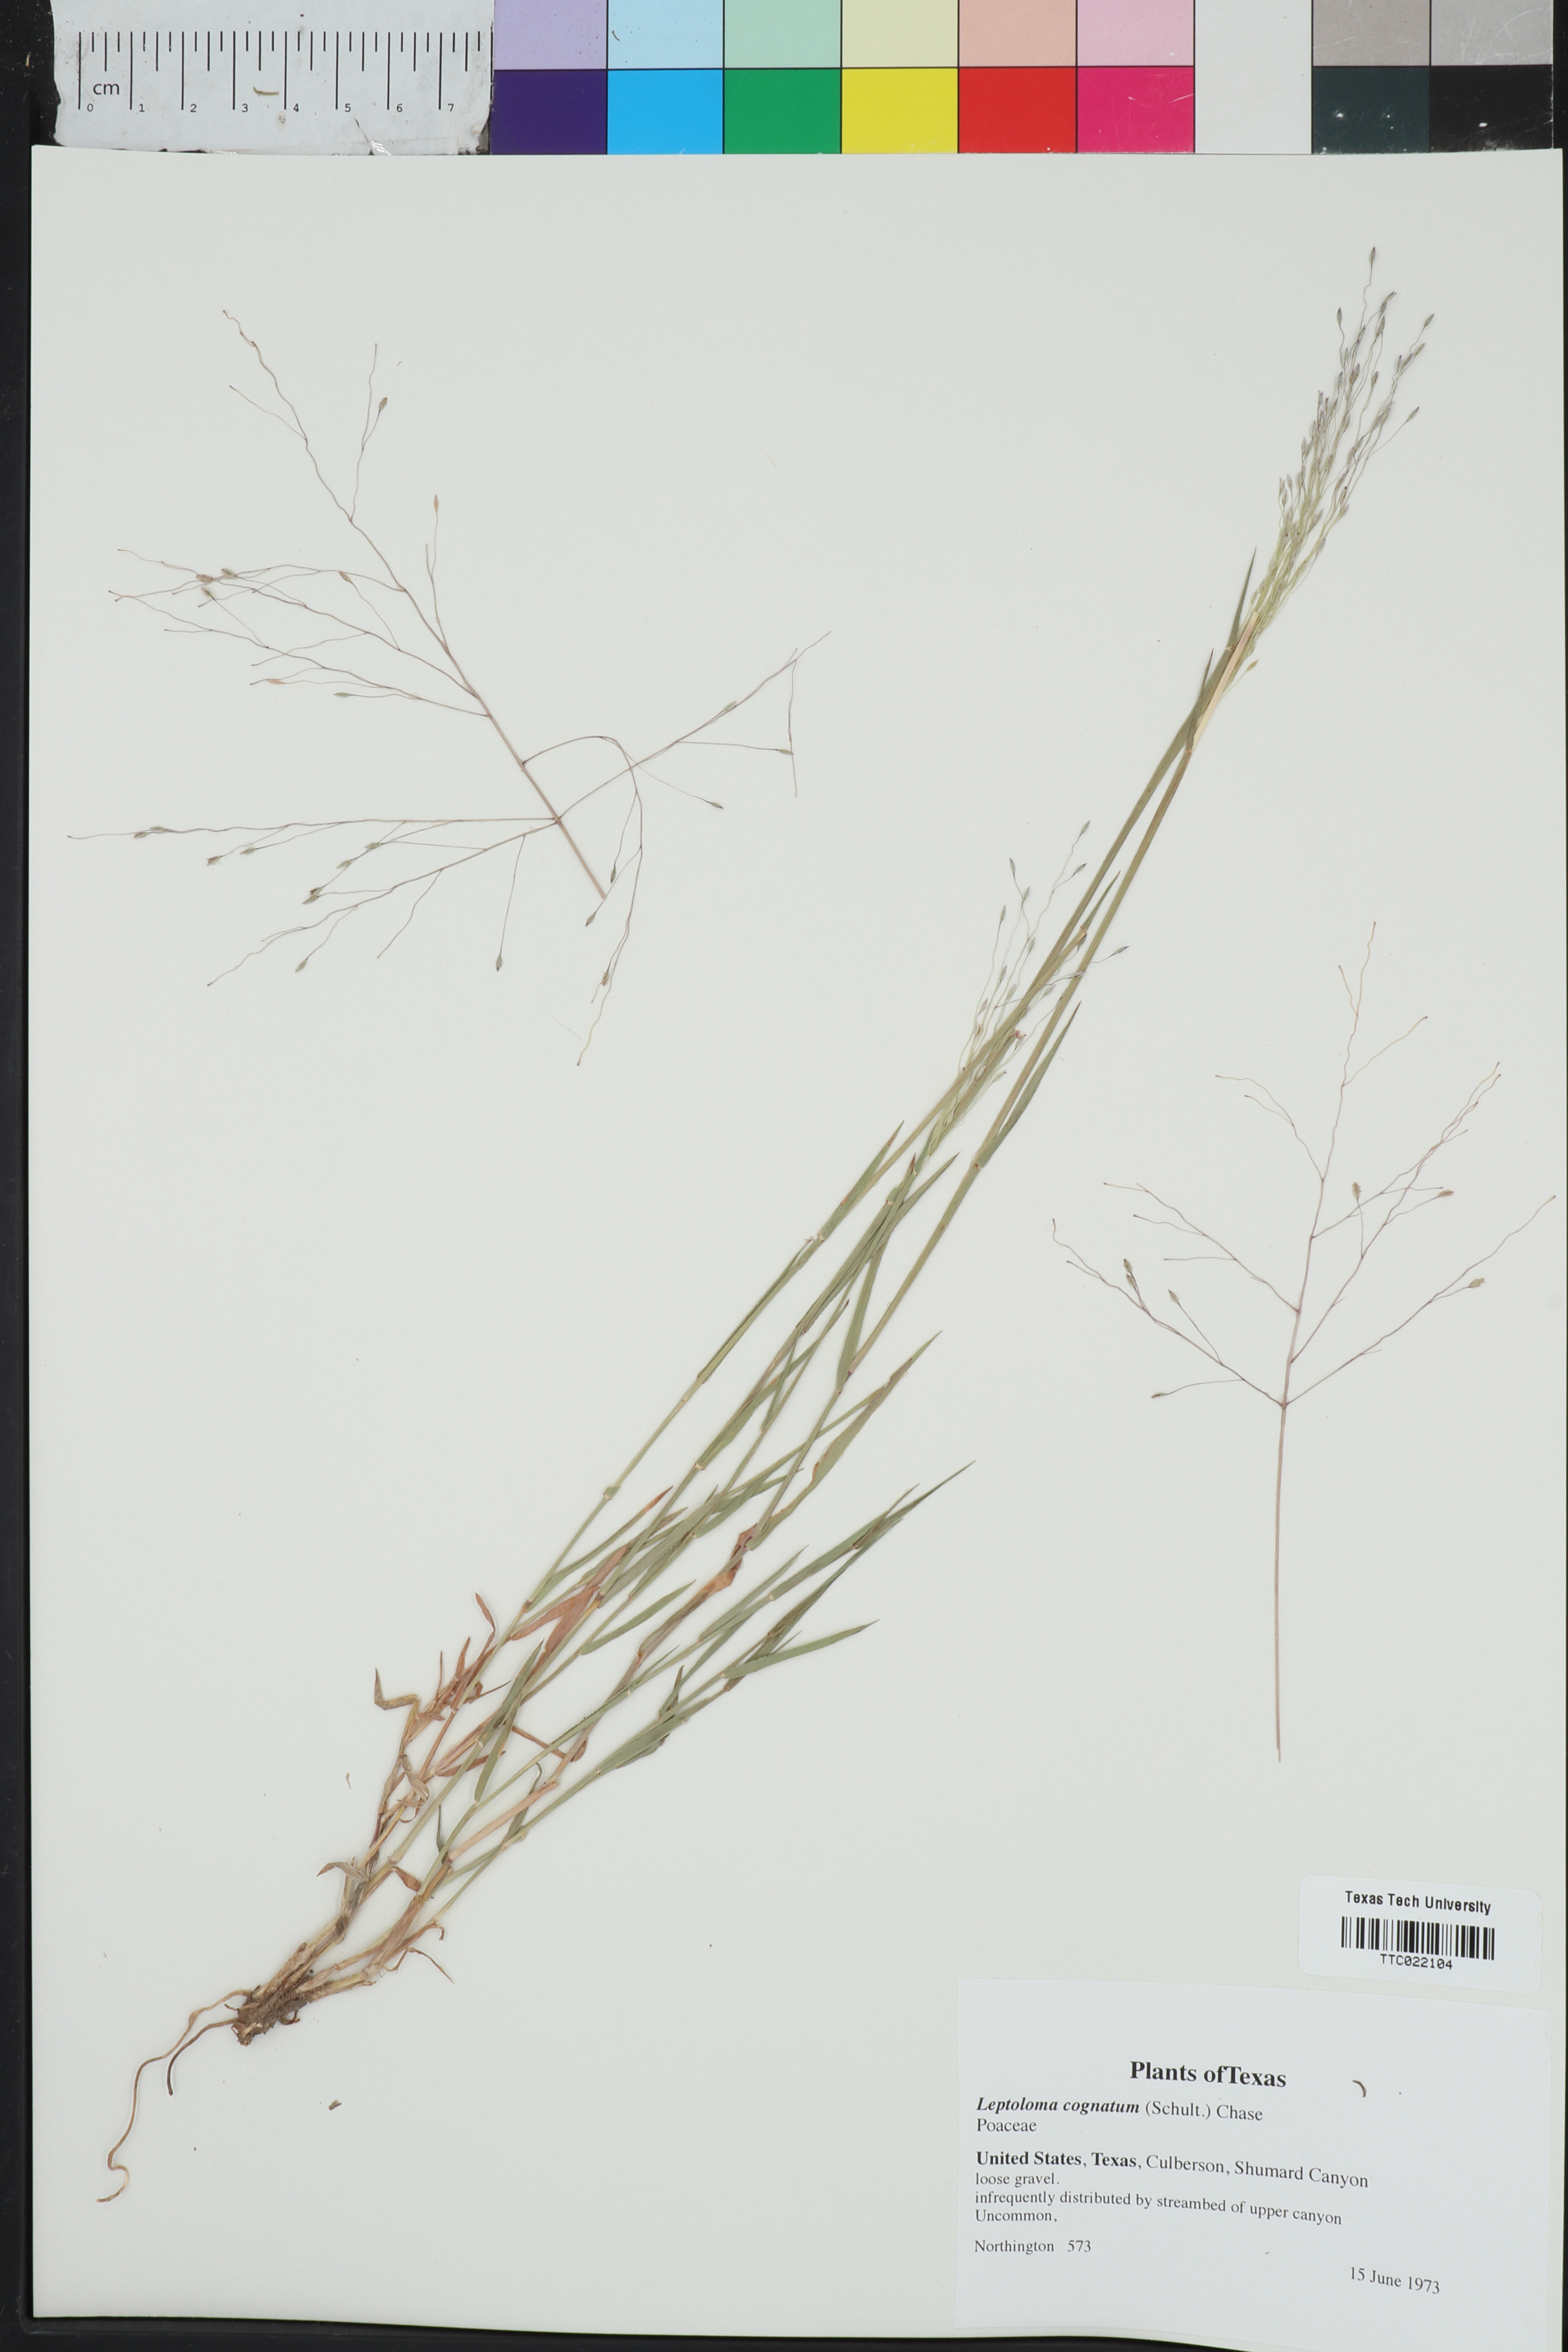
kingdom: Plantae
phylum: Tracheophyta
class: Liliopsida
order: Poales
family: Poaceae
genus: Digitaria
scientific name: Digitaria cognata
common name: Fall witchgrass
